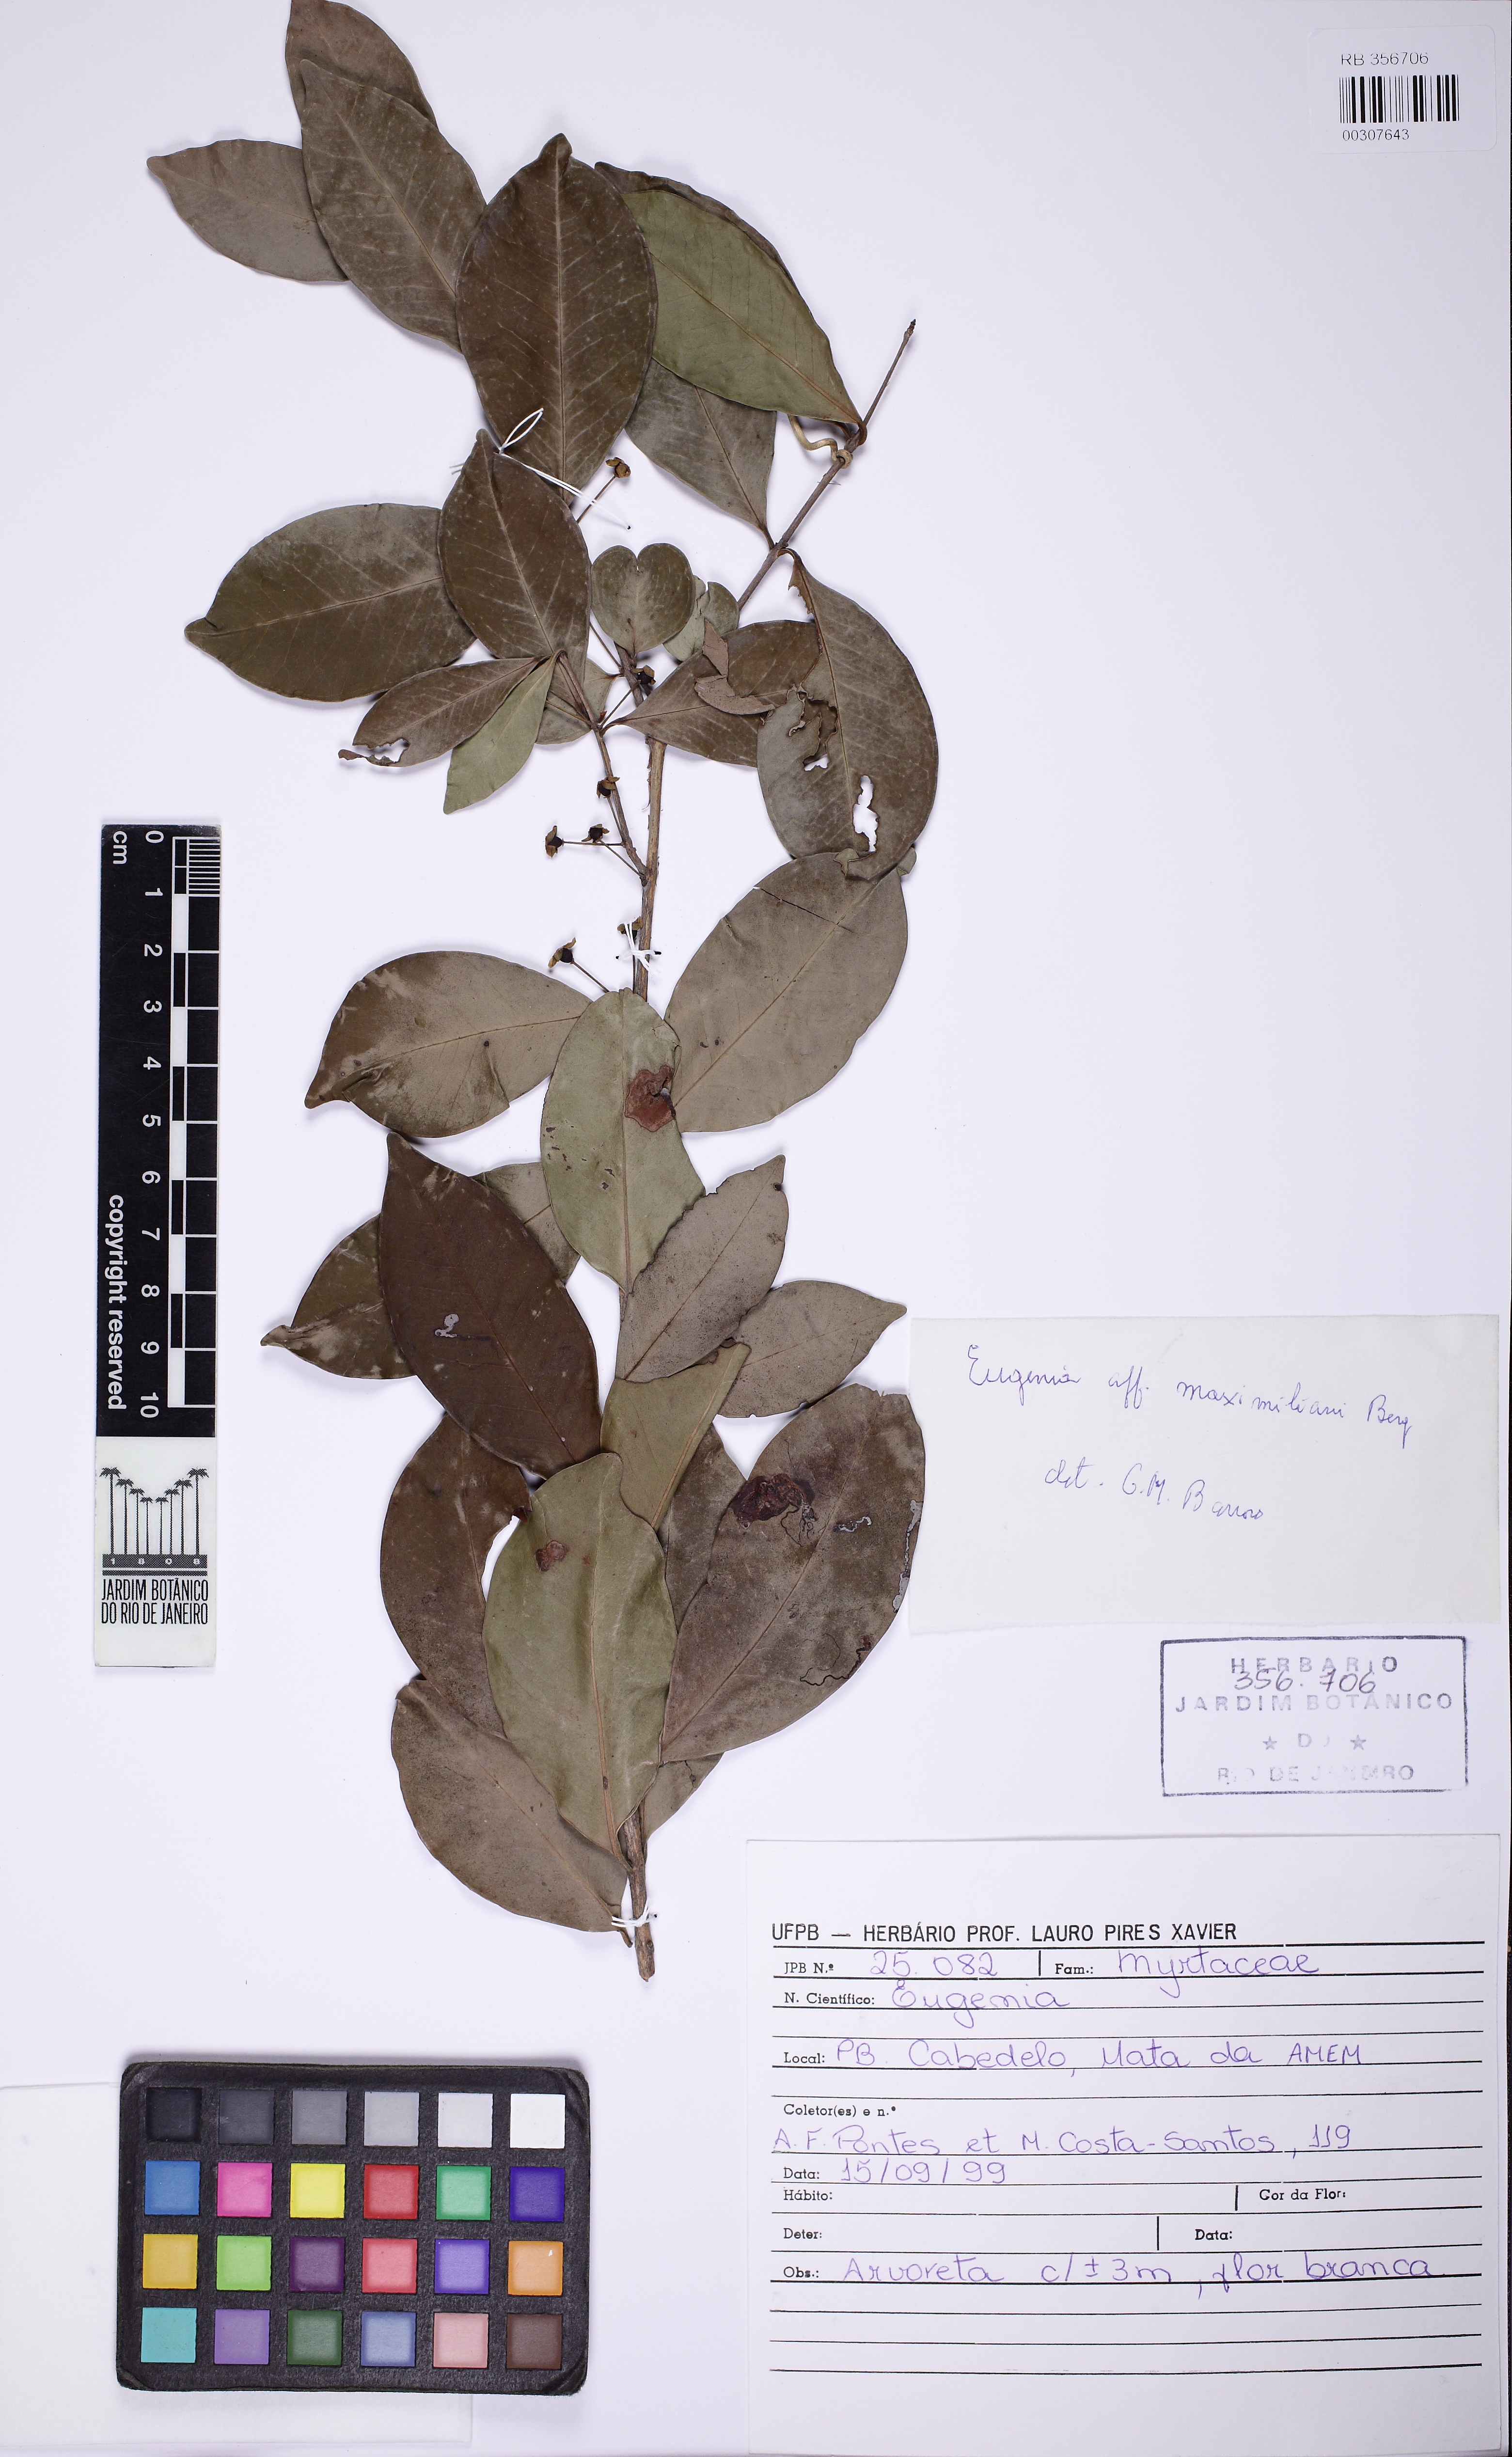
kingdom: Plantae
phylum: Tracheophyta
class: Magnoliopsida
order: Myrtales
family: Myrtaceae
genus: Eugenia
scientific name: Eugenia punicifolia
